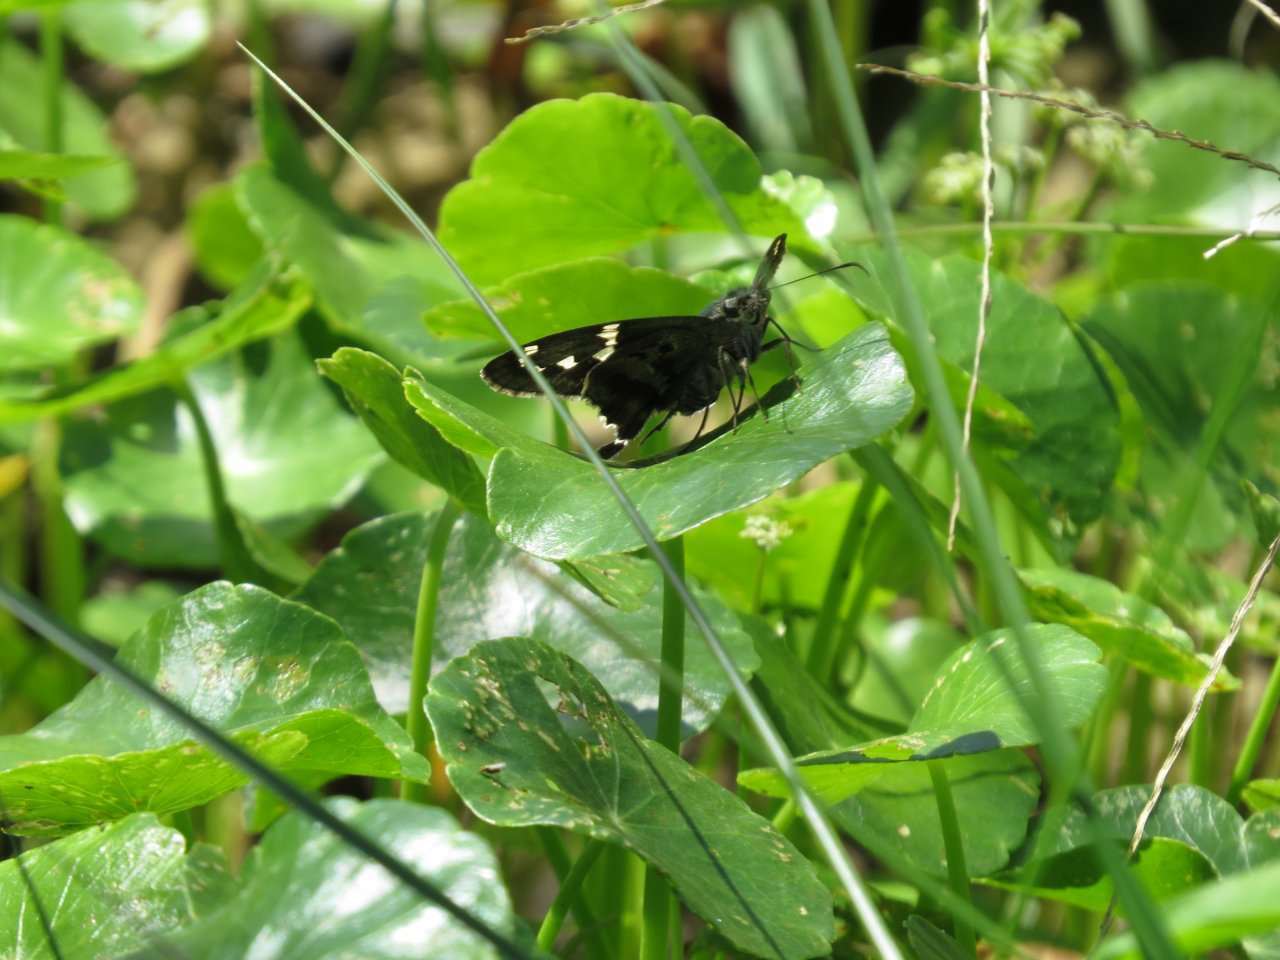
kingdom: Animalia
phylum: Arthropoda
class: Insecta
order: Lepidoptera
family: Hesperiidae
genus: Urbanus
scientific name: Urbanus proteus
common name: Long-tailed Skipper
